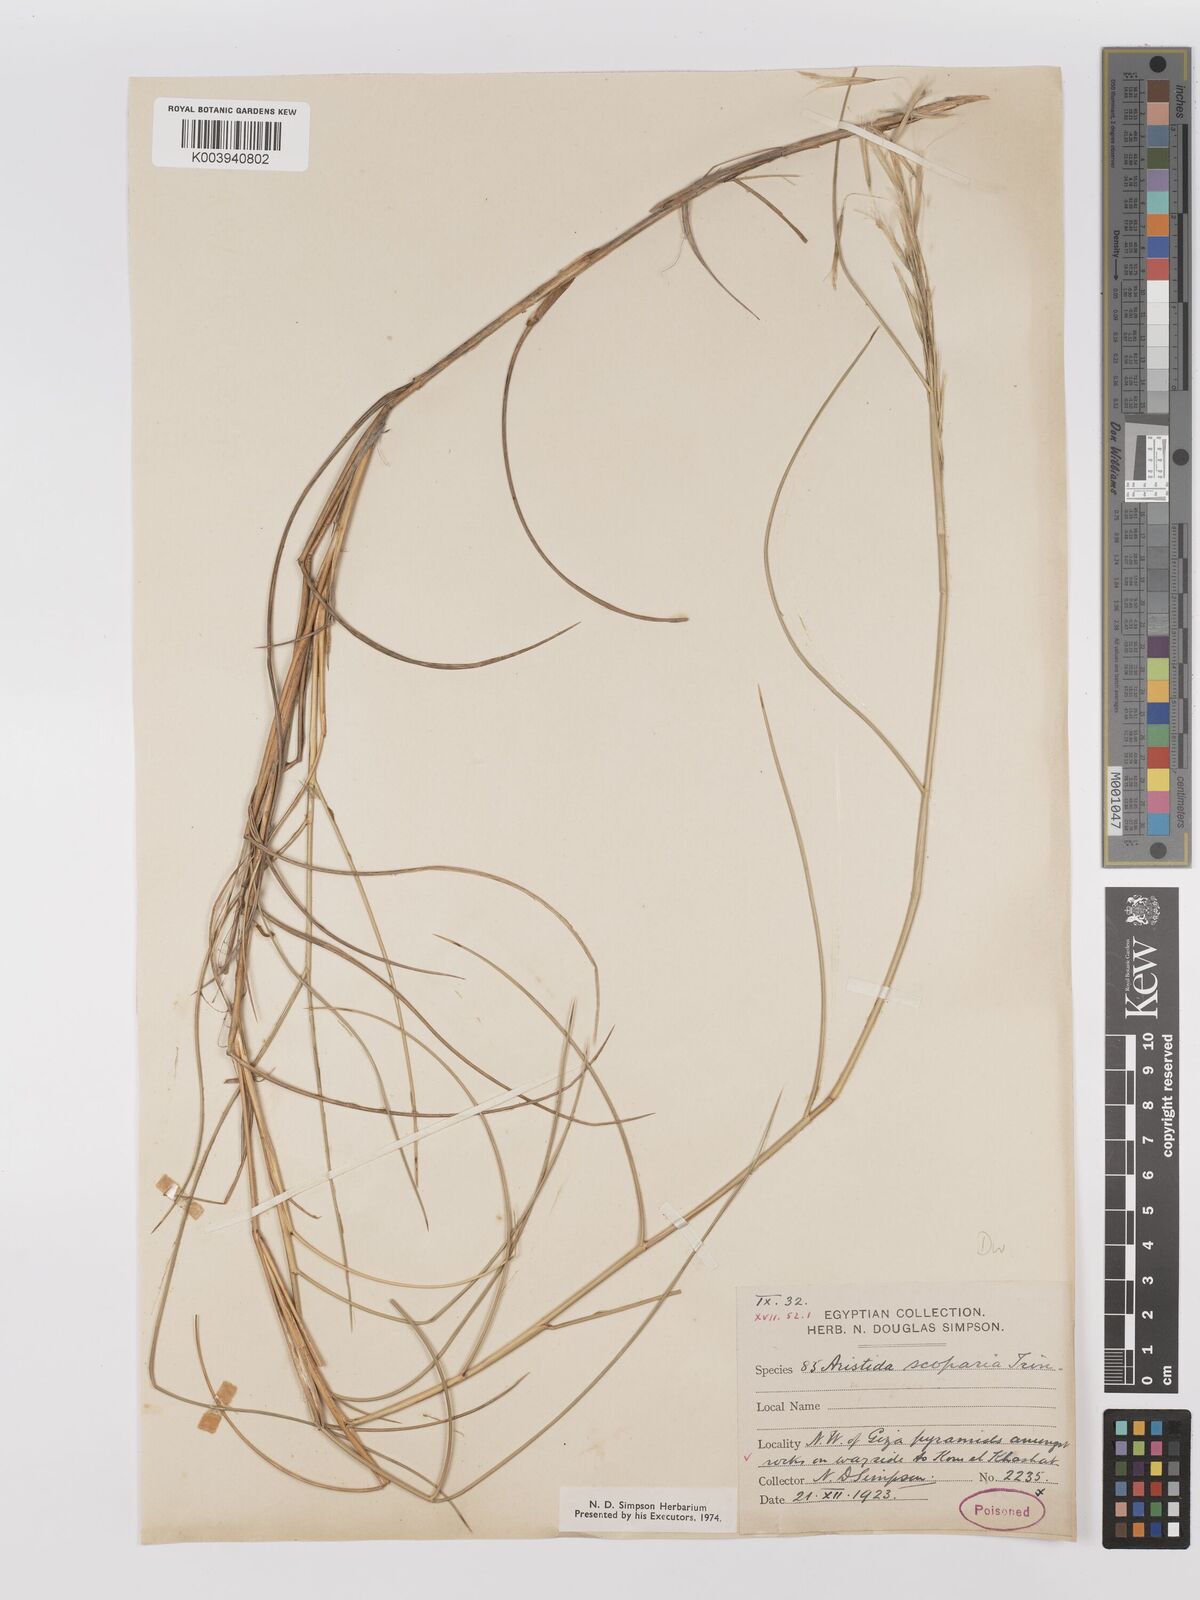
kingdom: Plantae
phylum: Tracheophyta
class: Liliopsida
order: Poales
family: Poaceae
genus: Stipagrostis
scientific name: Stipagrostis scoparia
